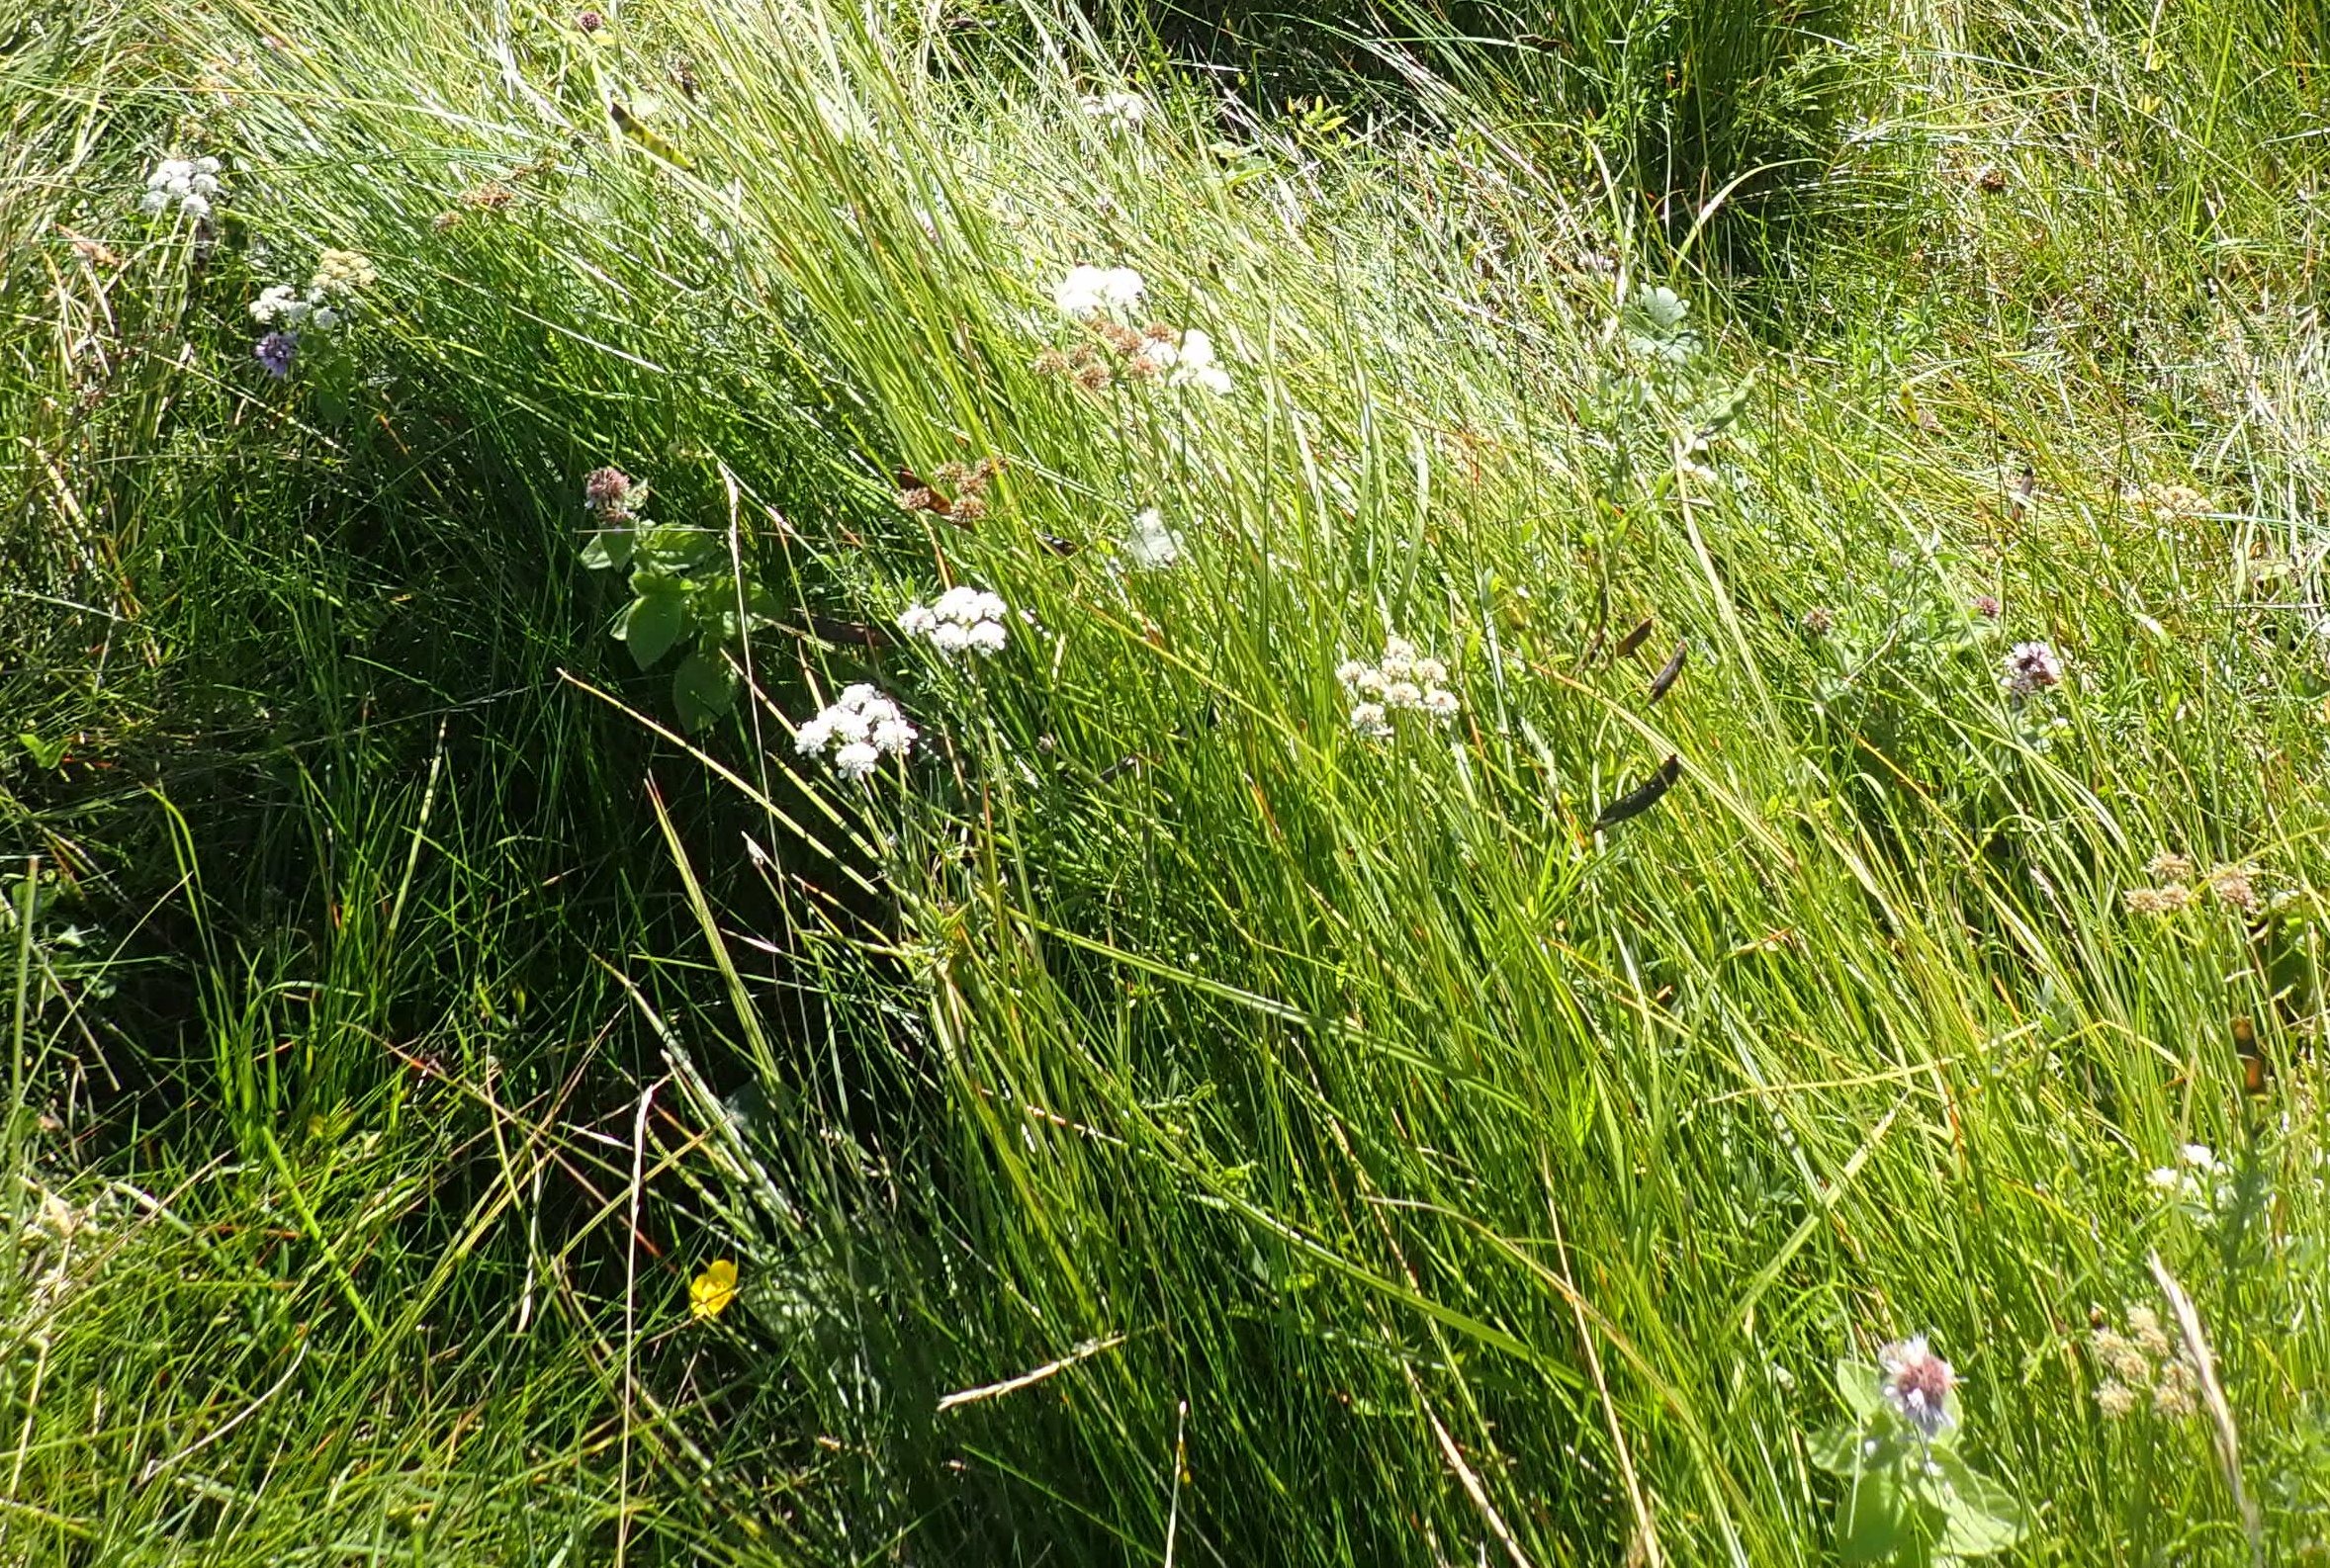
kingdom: Plantae
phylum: Tracheophyta
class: Magnoliopsida
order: Apiales
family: Apiaceae
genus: Oenanthe
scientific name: Oenanthe lachenalii
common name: Eng-klaseskærm
